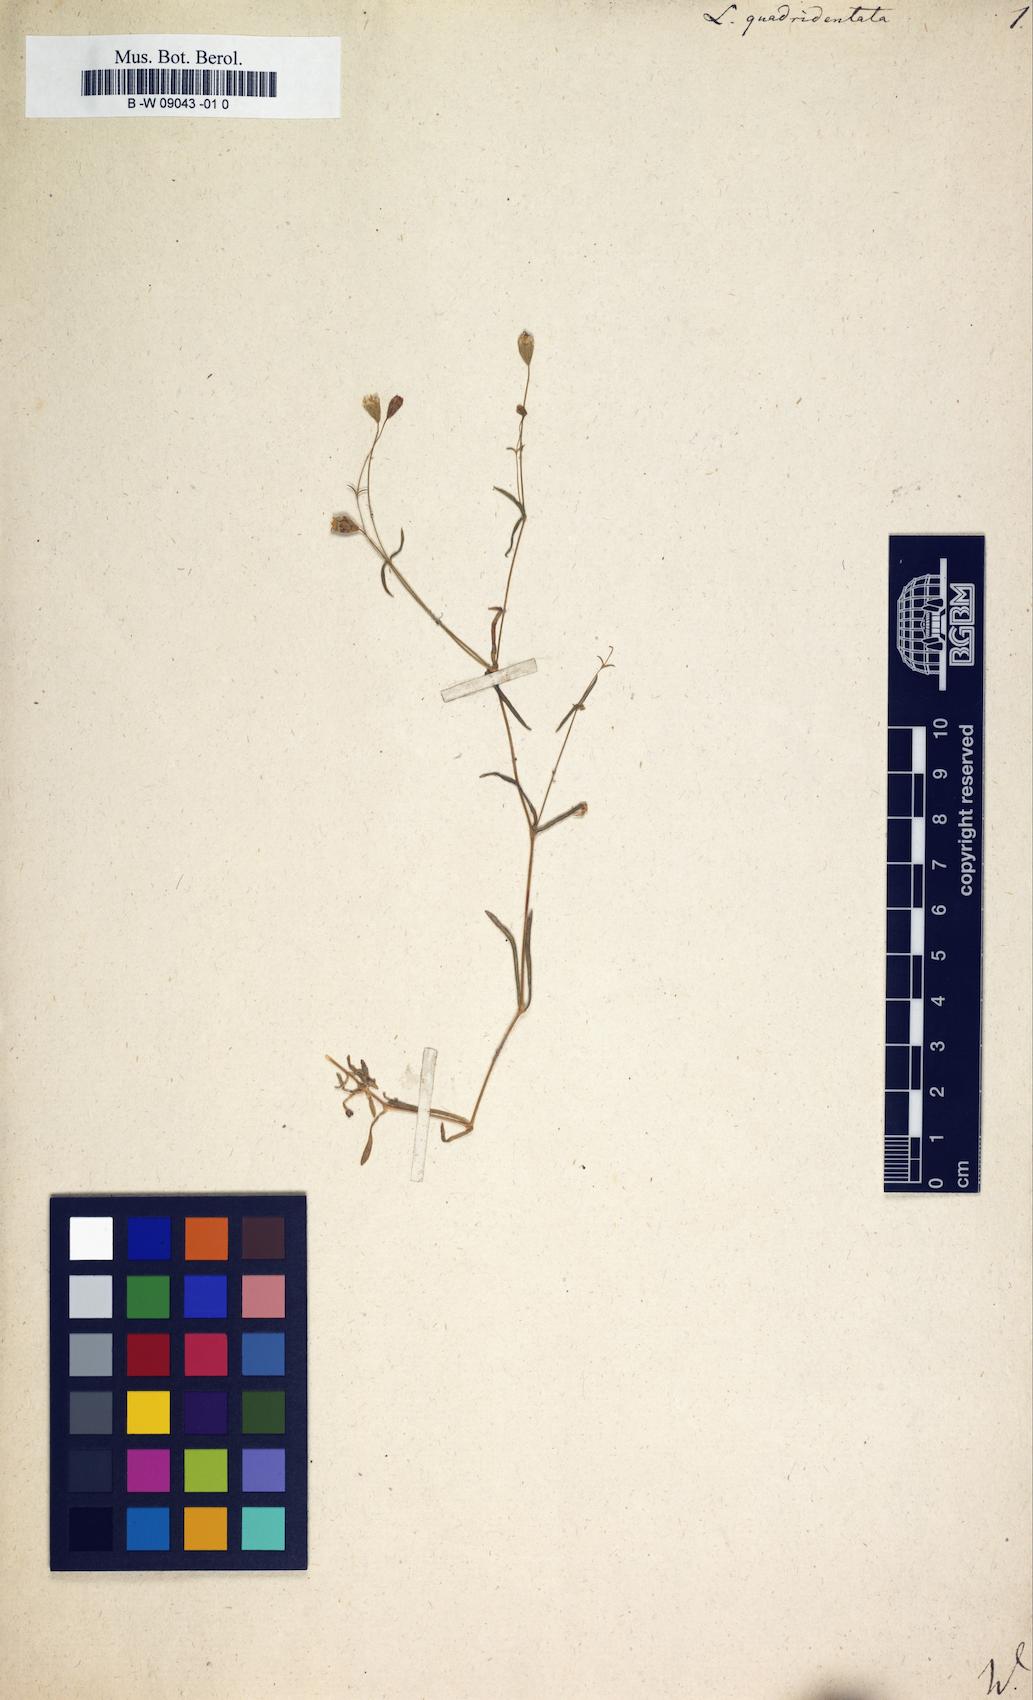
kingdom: Plantae
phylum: Tracheophyta
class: Magnoliopsida
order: Caryophyllales
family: Caryophyllaceae
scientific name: Caryophyllaceae
